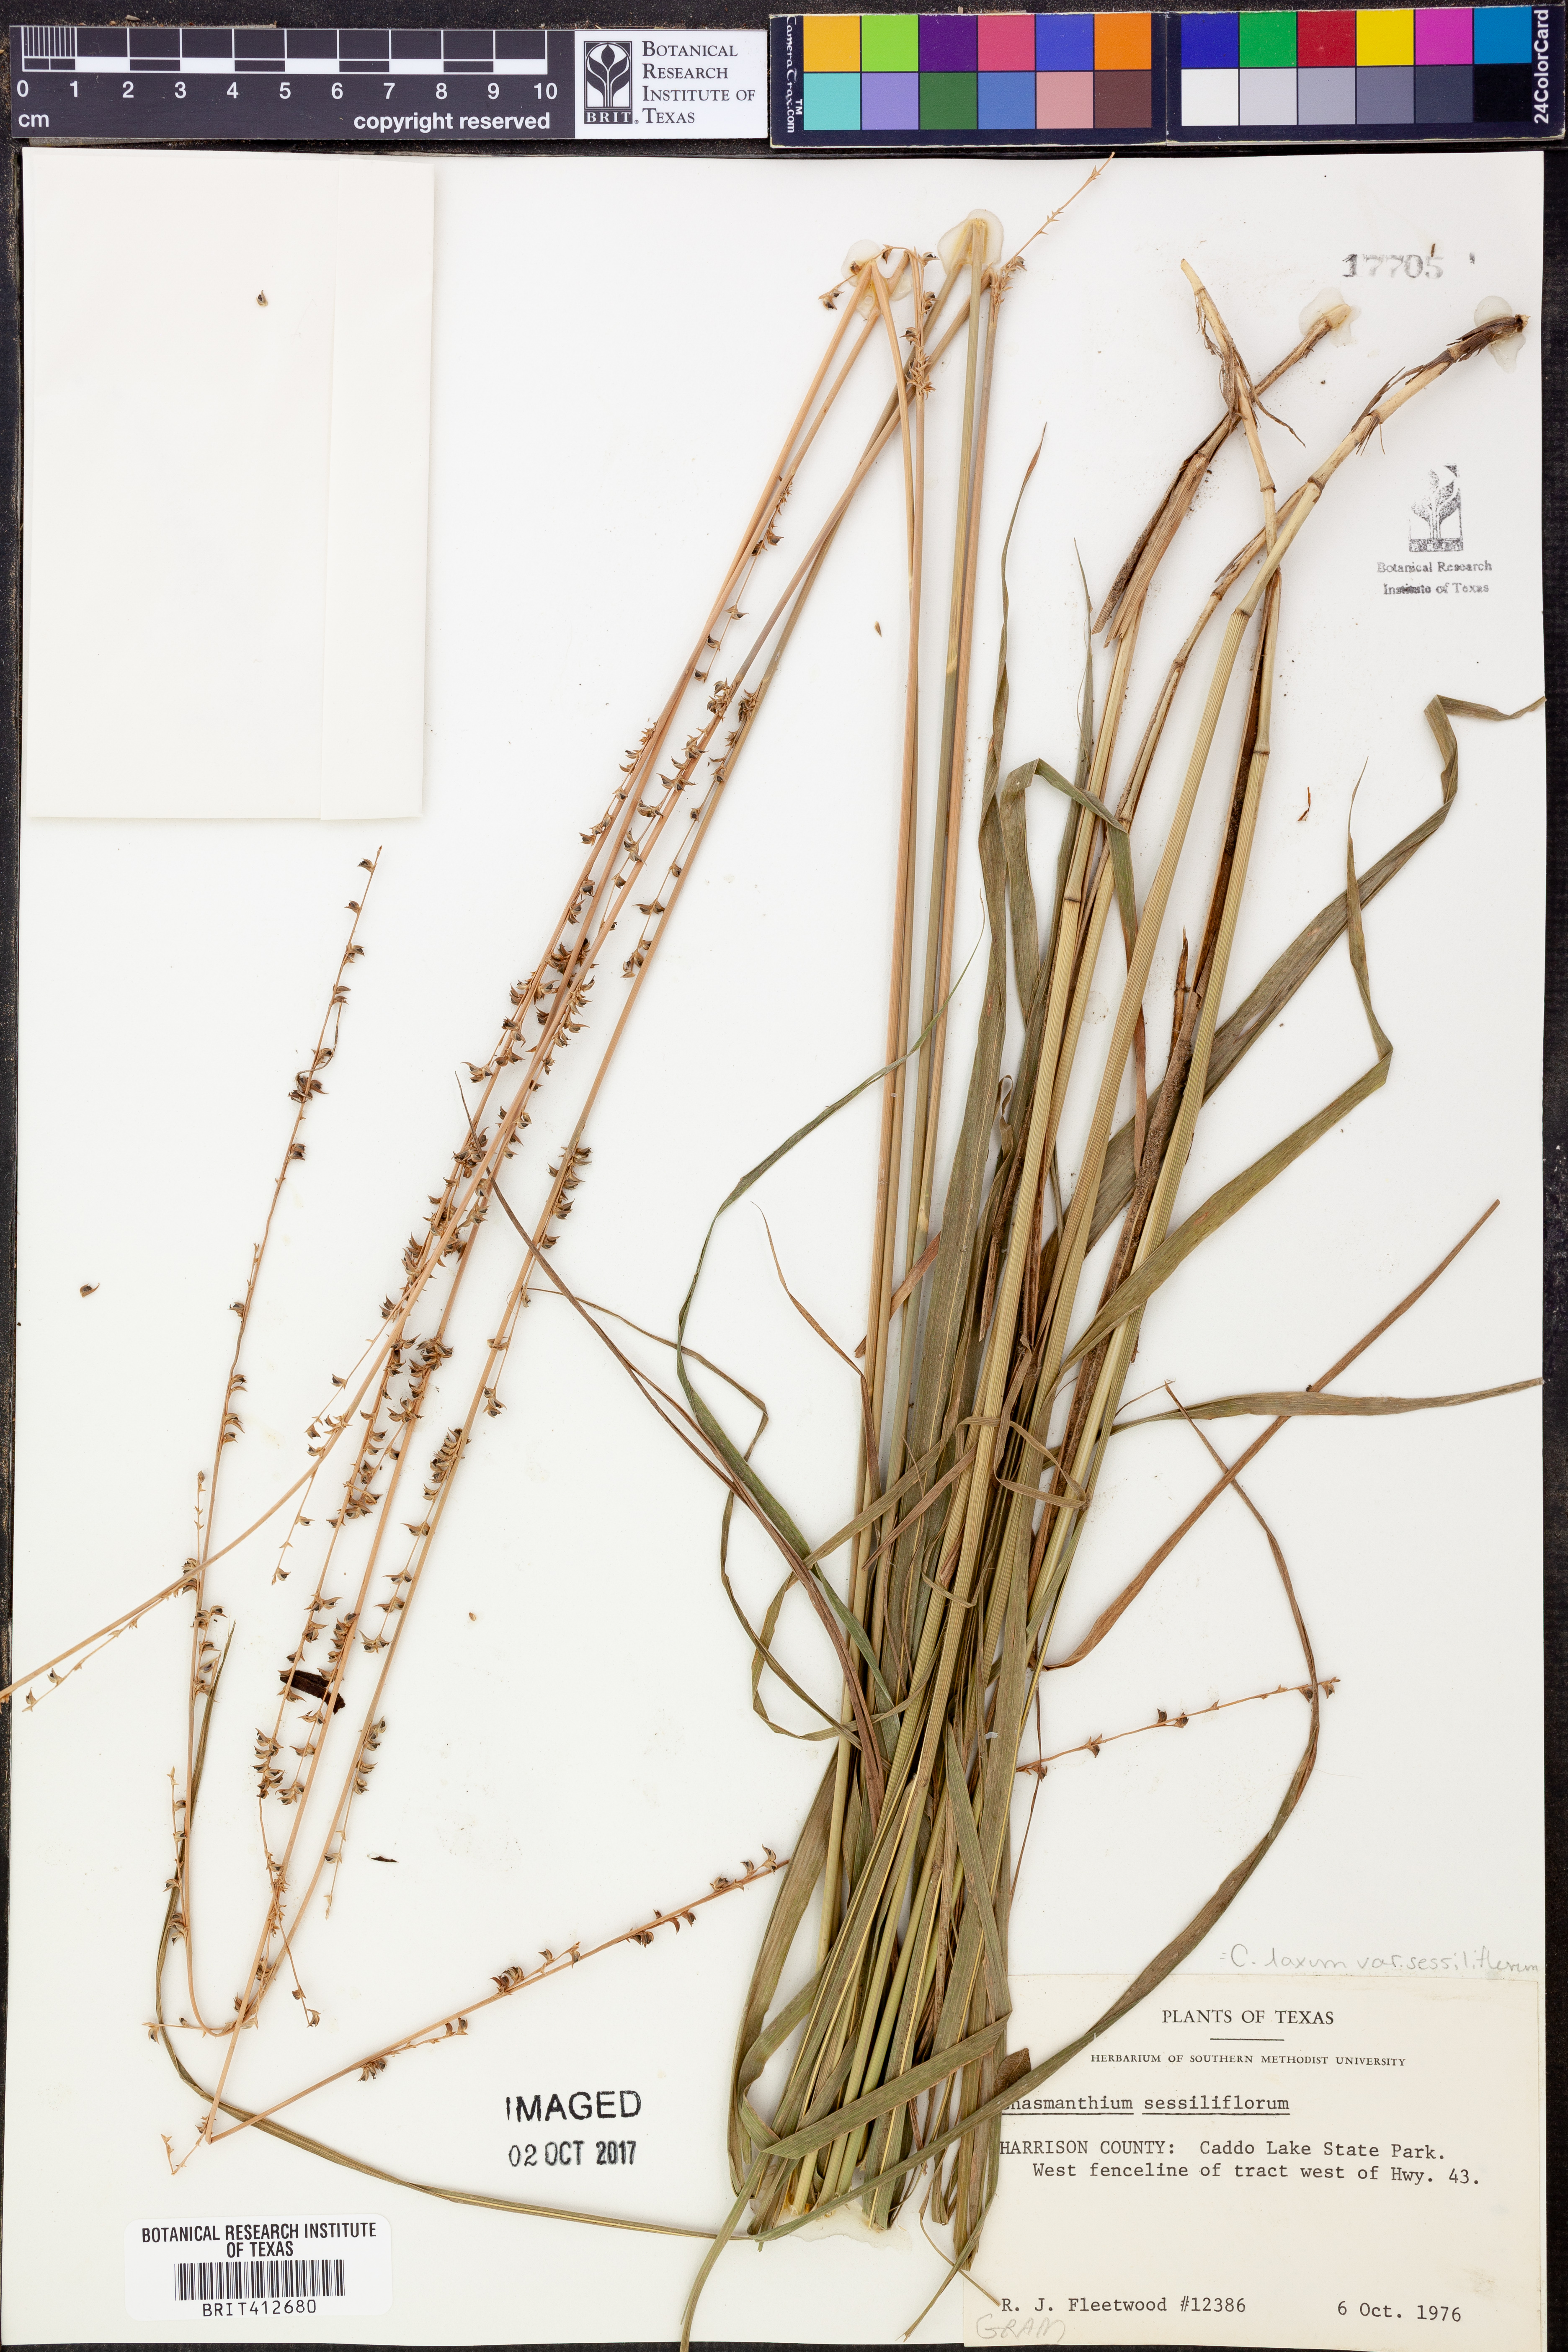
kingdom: Plantae
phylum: Tracheophyta
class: Liliopsida
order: Poales
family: Poaceae
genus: Chasmanthium
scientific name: Chasmanthium laxum
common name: Slender chasmanthium
